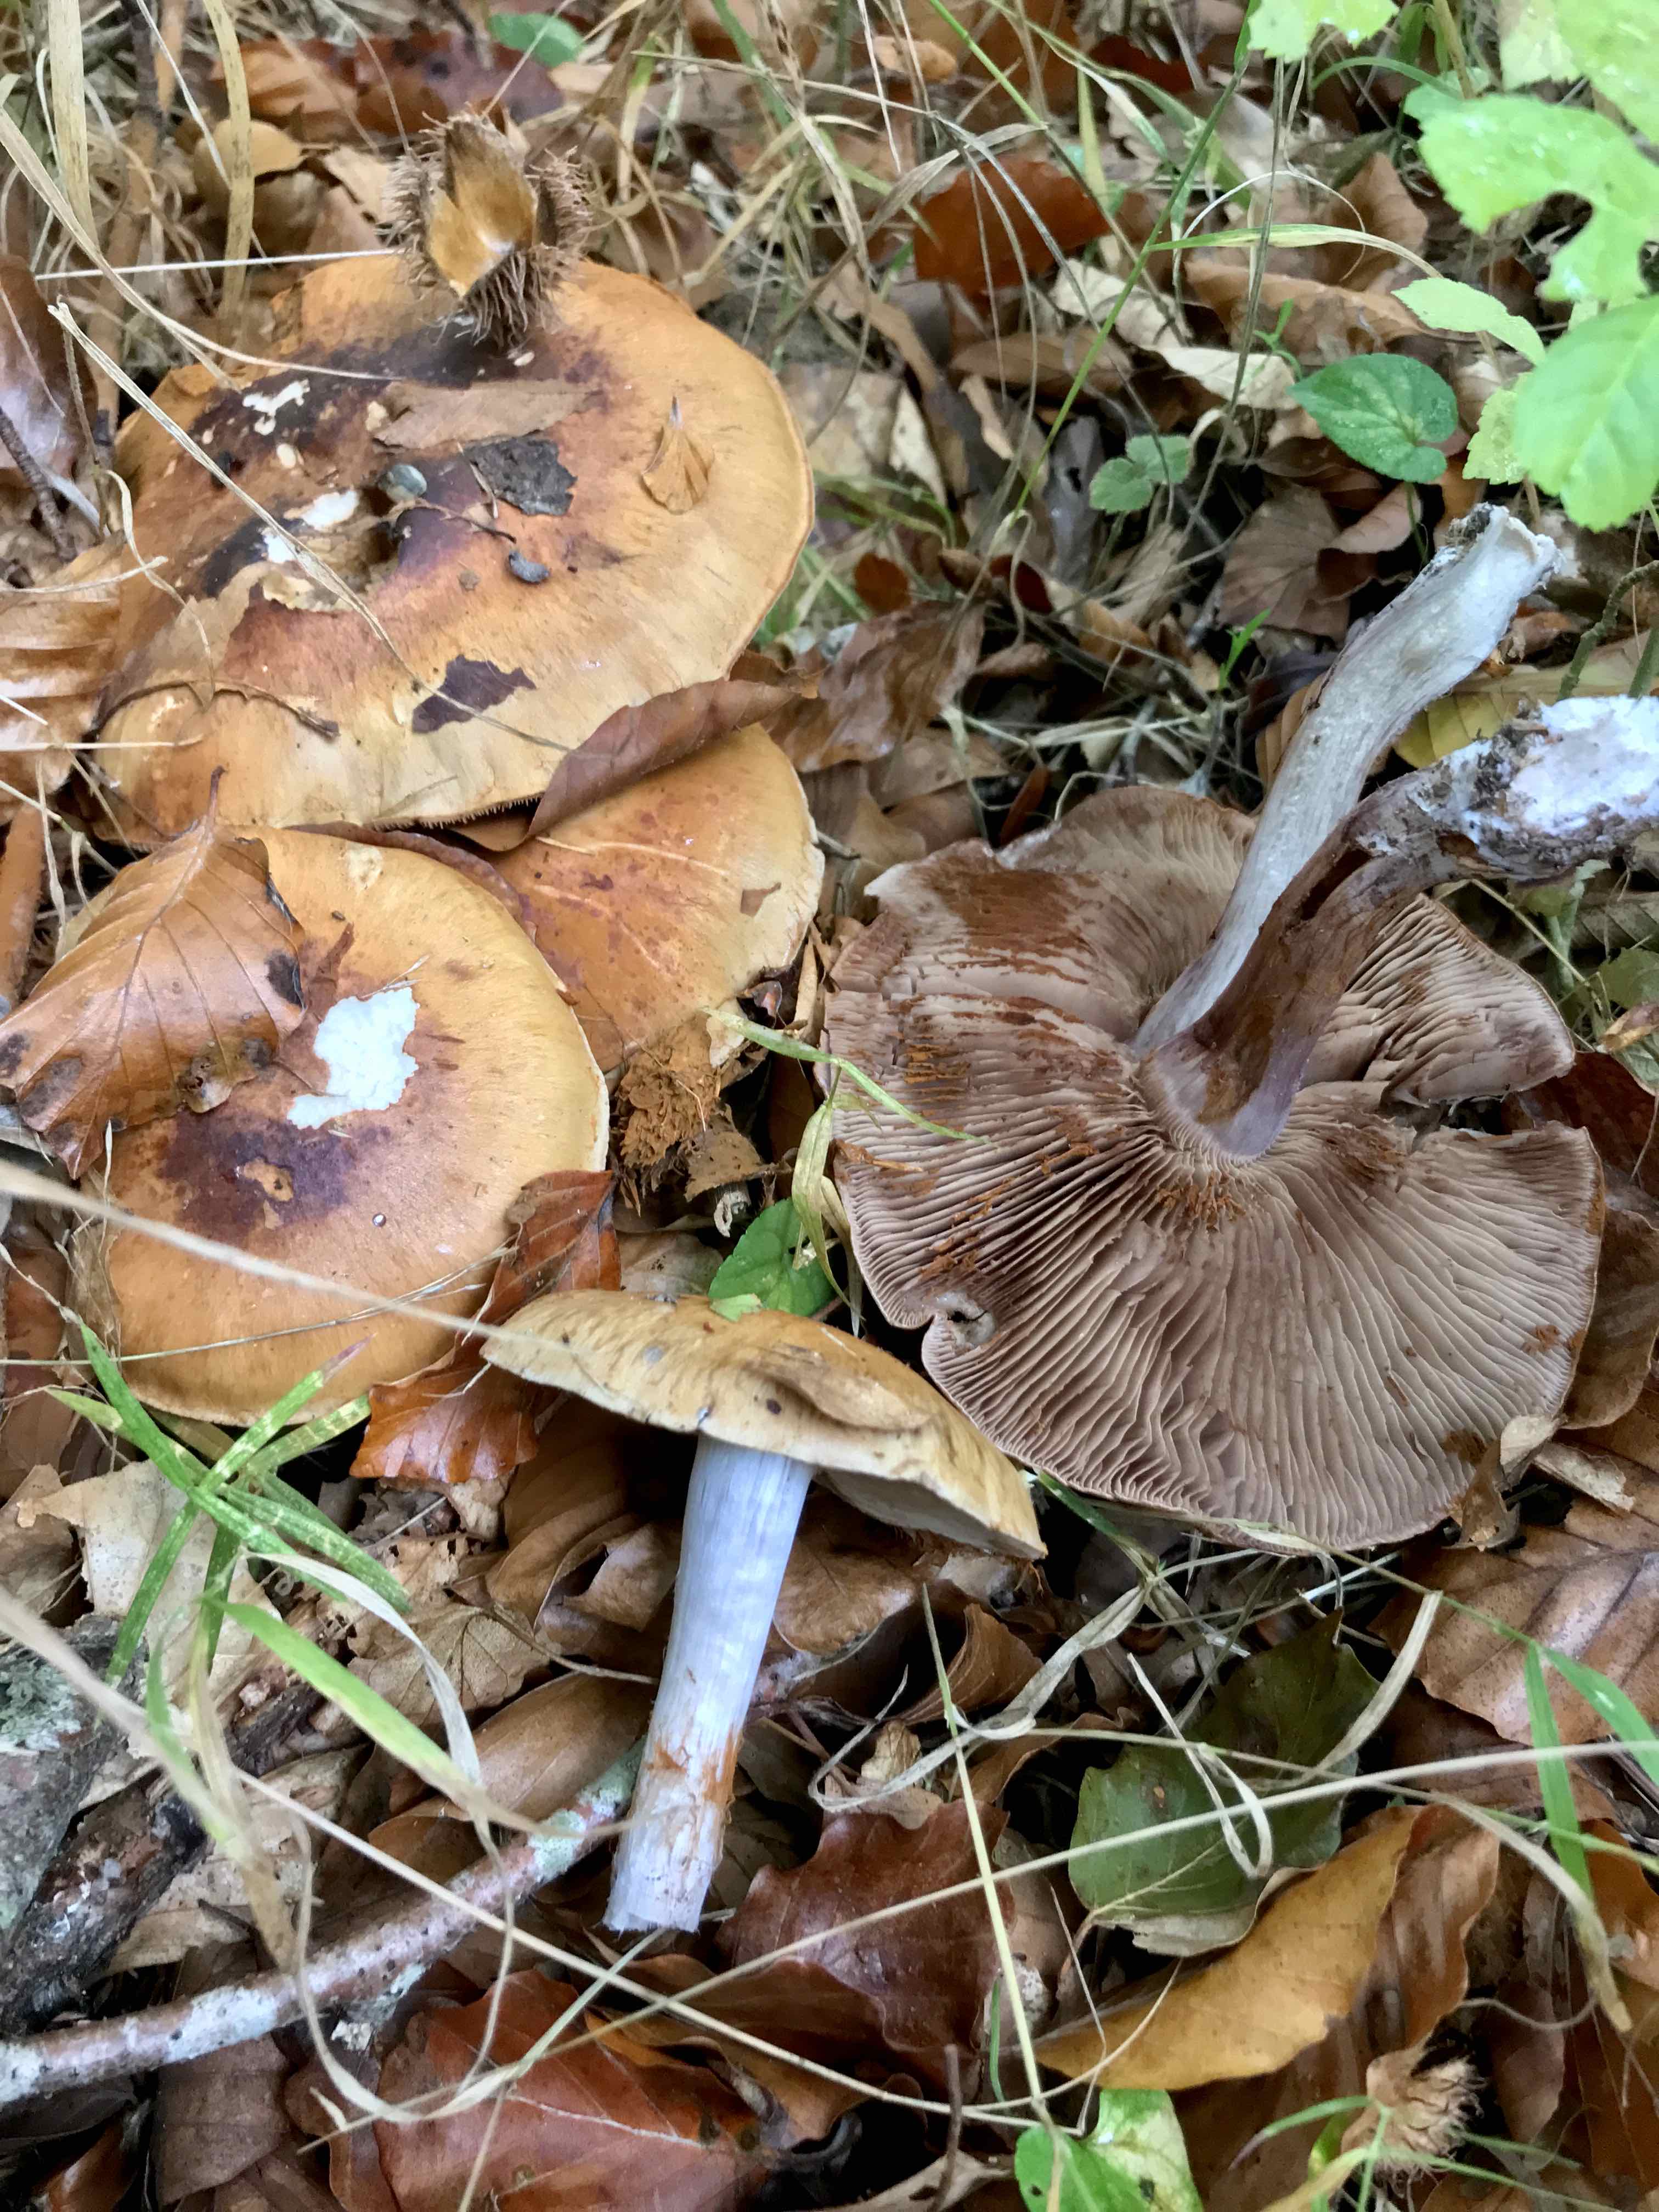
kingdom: Fungi
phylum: Basidiomycota
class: Agaricomycetes
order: Agaricales
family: Cortinariaceae
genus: Cortinarius
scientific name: Cortinarius
